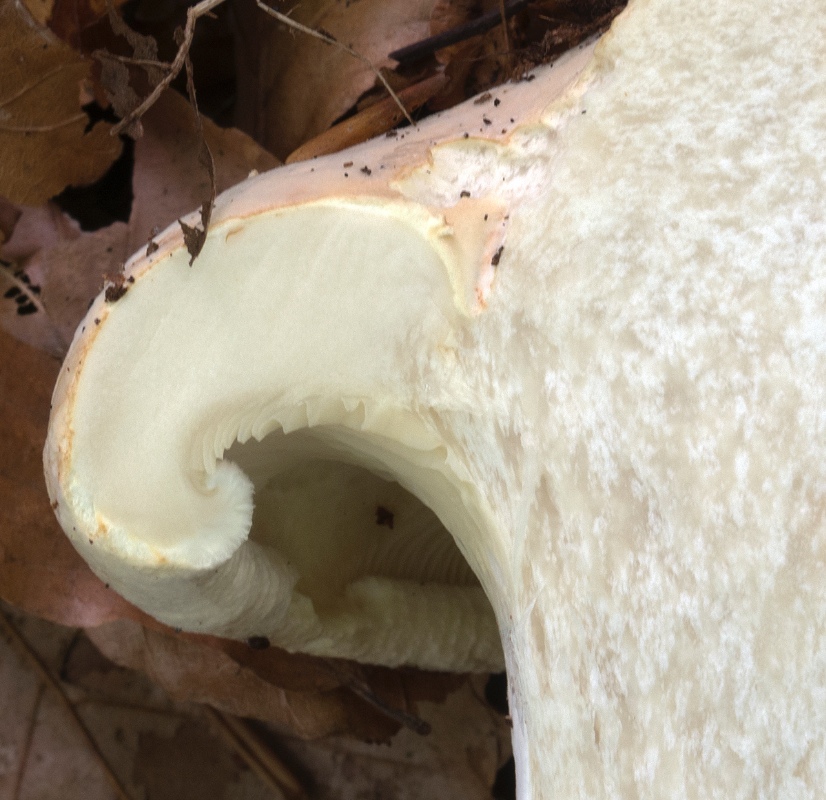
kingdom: Fungi
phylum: Basidiomycota
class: Agaricomycetes
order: Agaricales
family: Tricholomataceae
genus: Leucopaxillus
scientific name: Leucopaxillus tricolor
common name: trefarvet tragtridderhat
